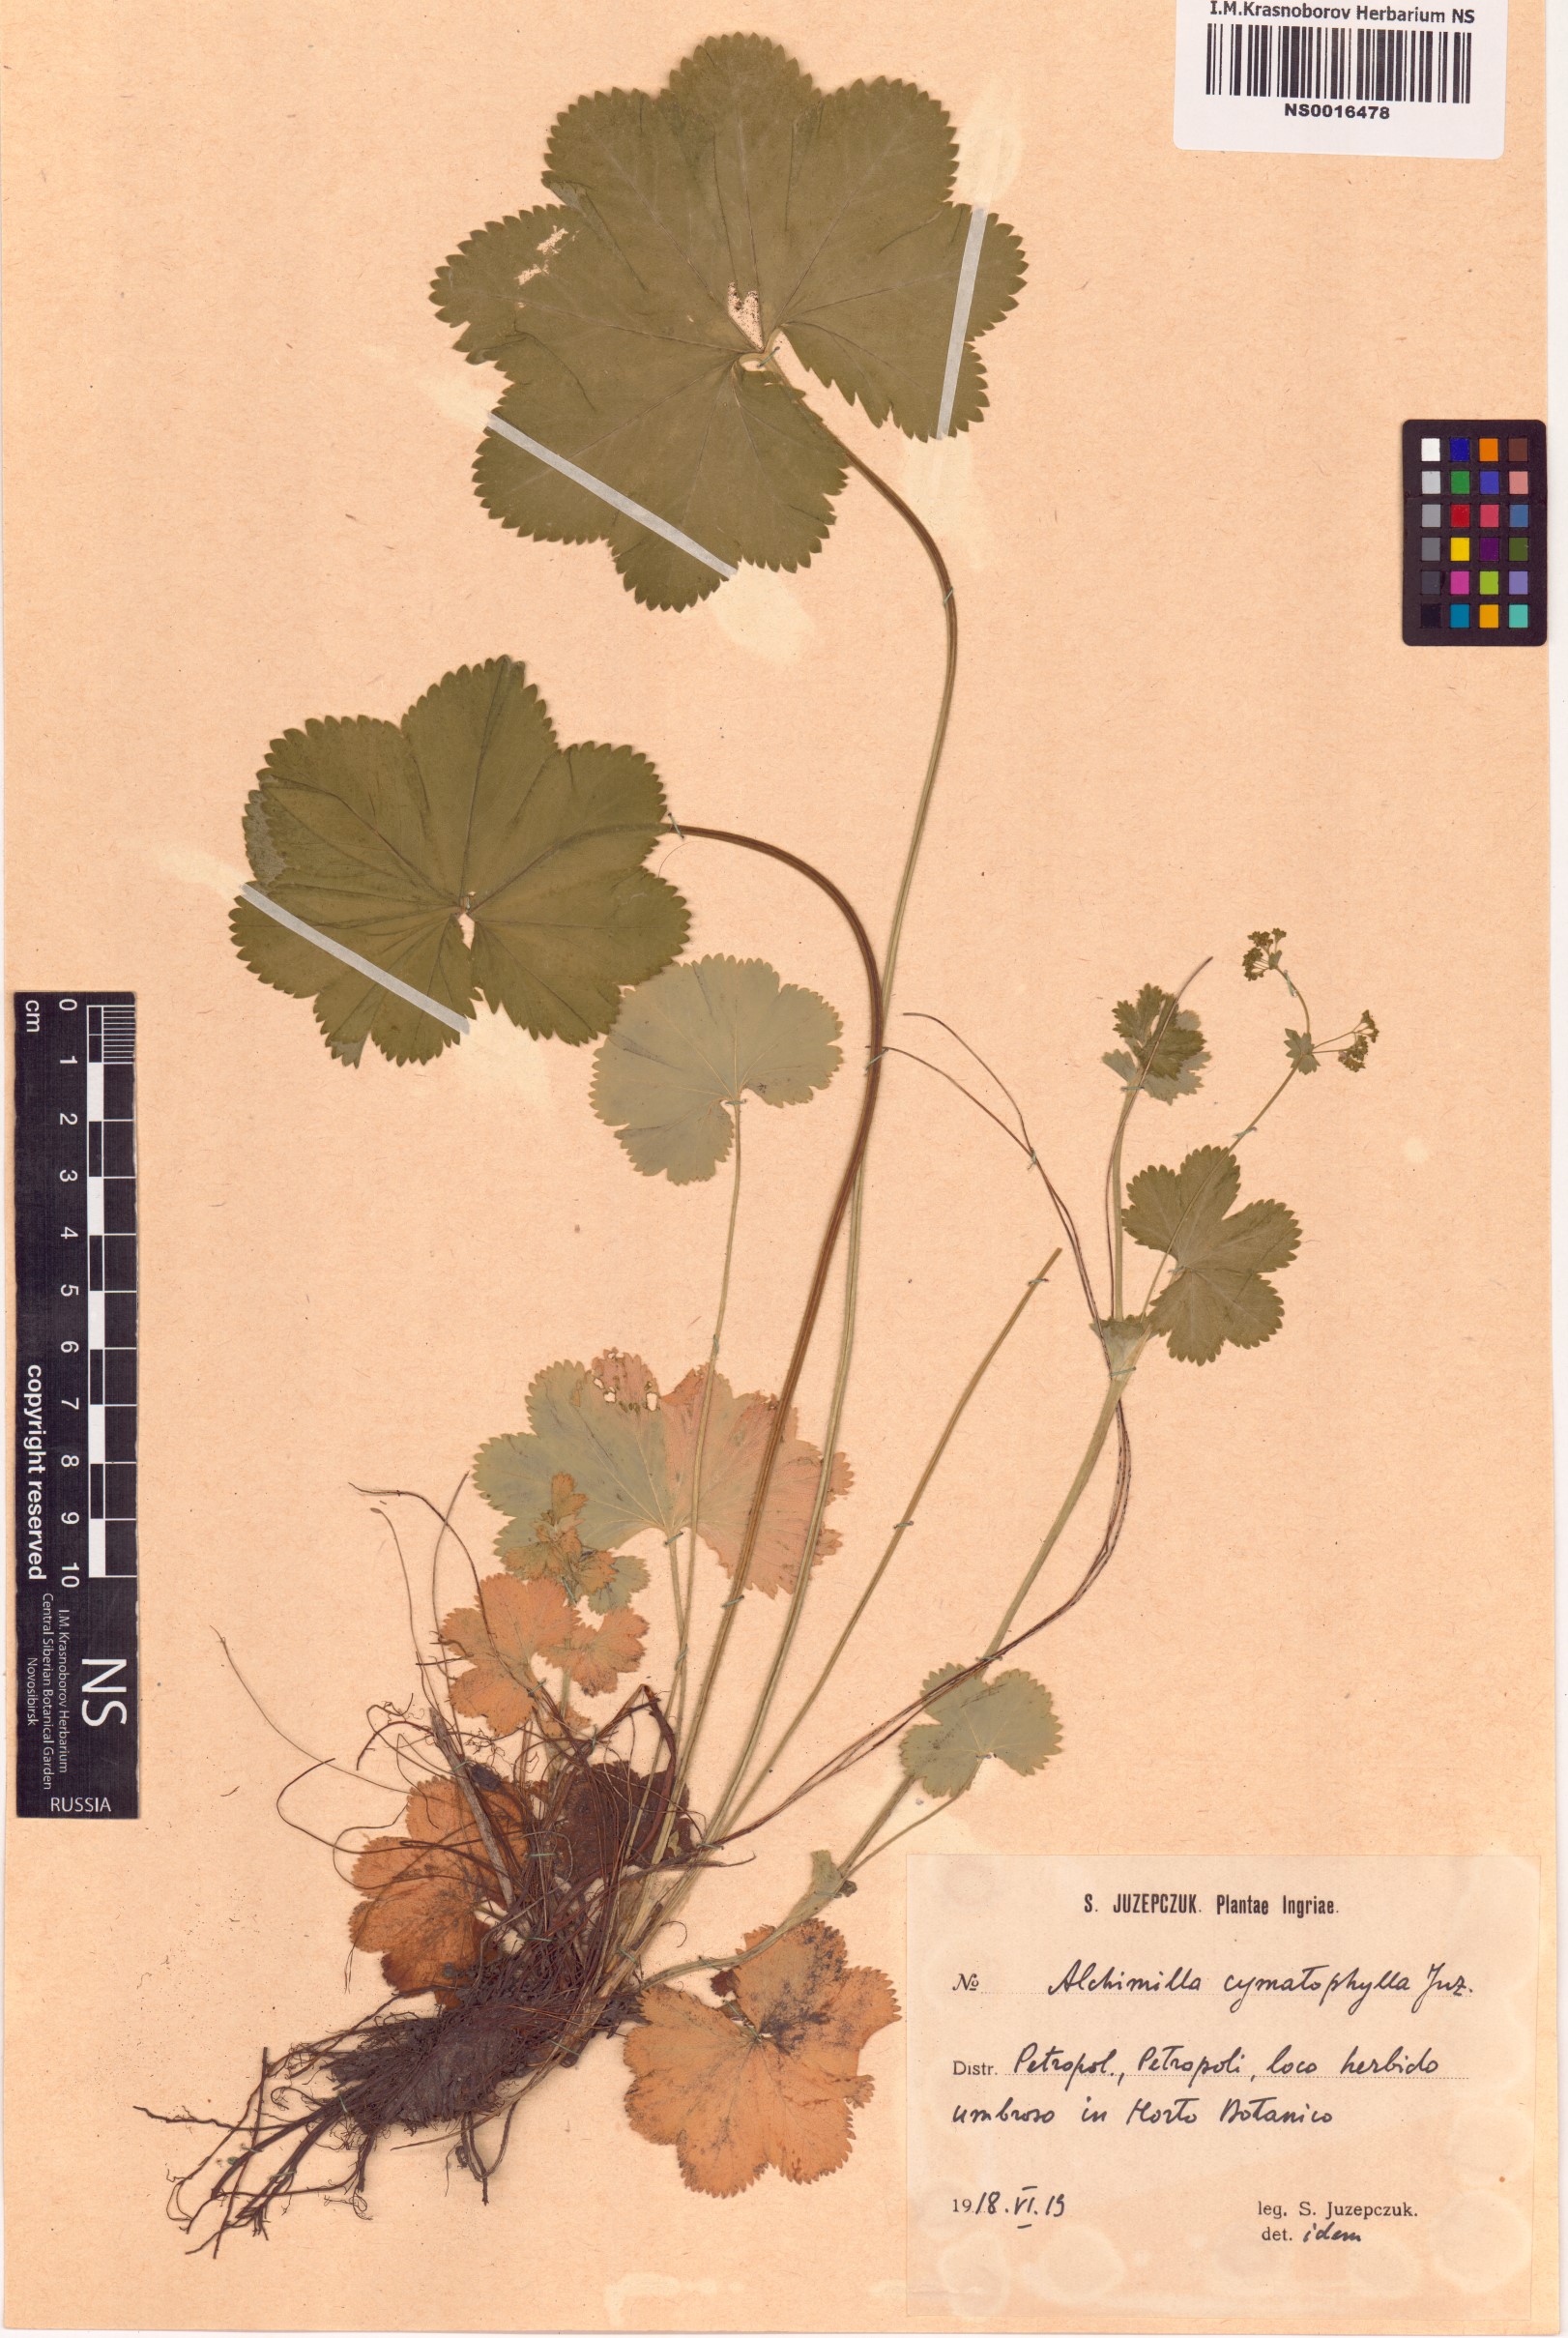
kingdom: Plantae
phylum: Tracheophyta
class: Magnoliopsida
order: Rosales
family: Rosaceae
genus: Alchemilla
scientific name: Alchemilla cymatophylla
